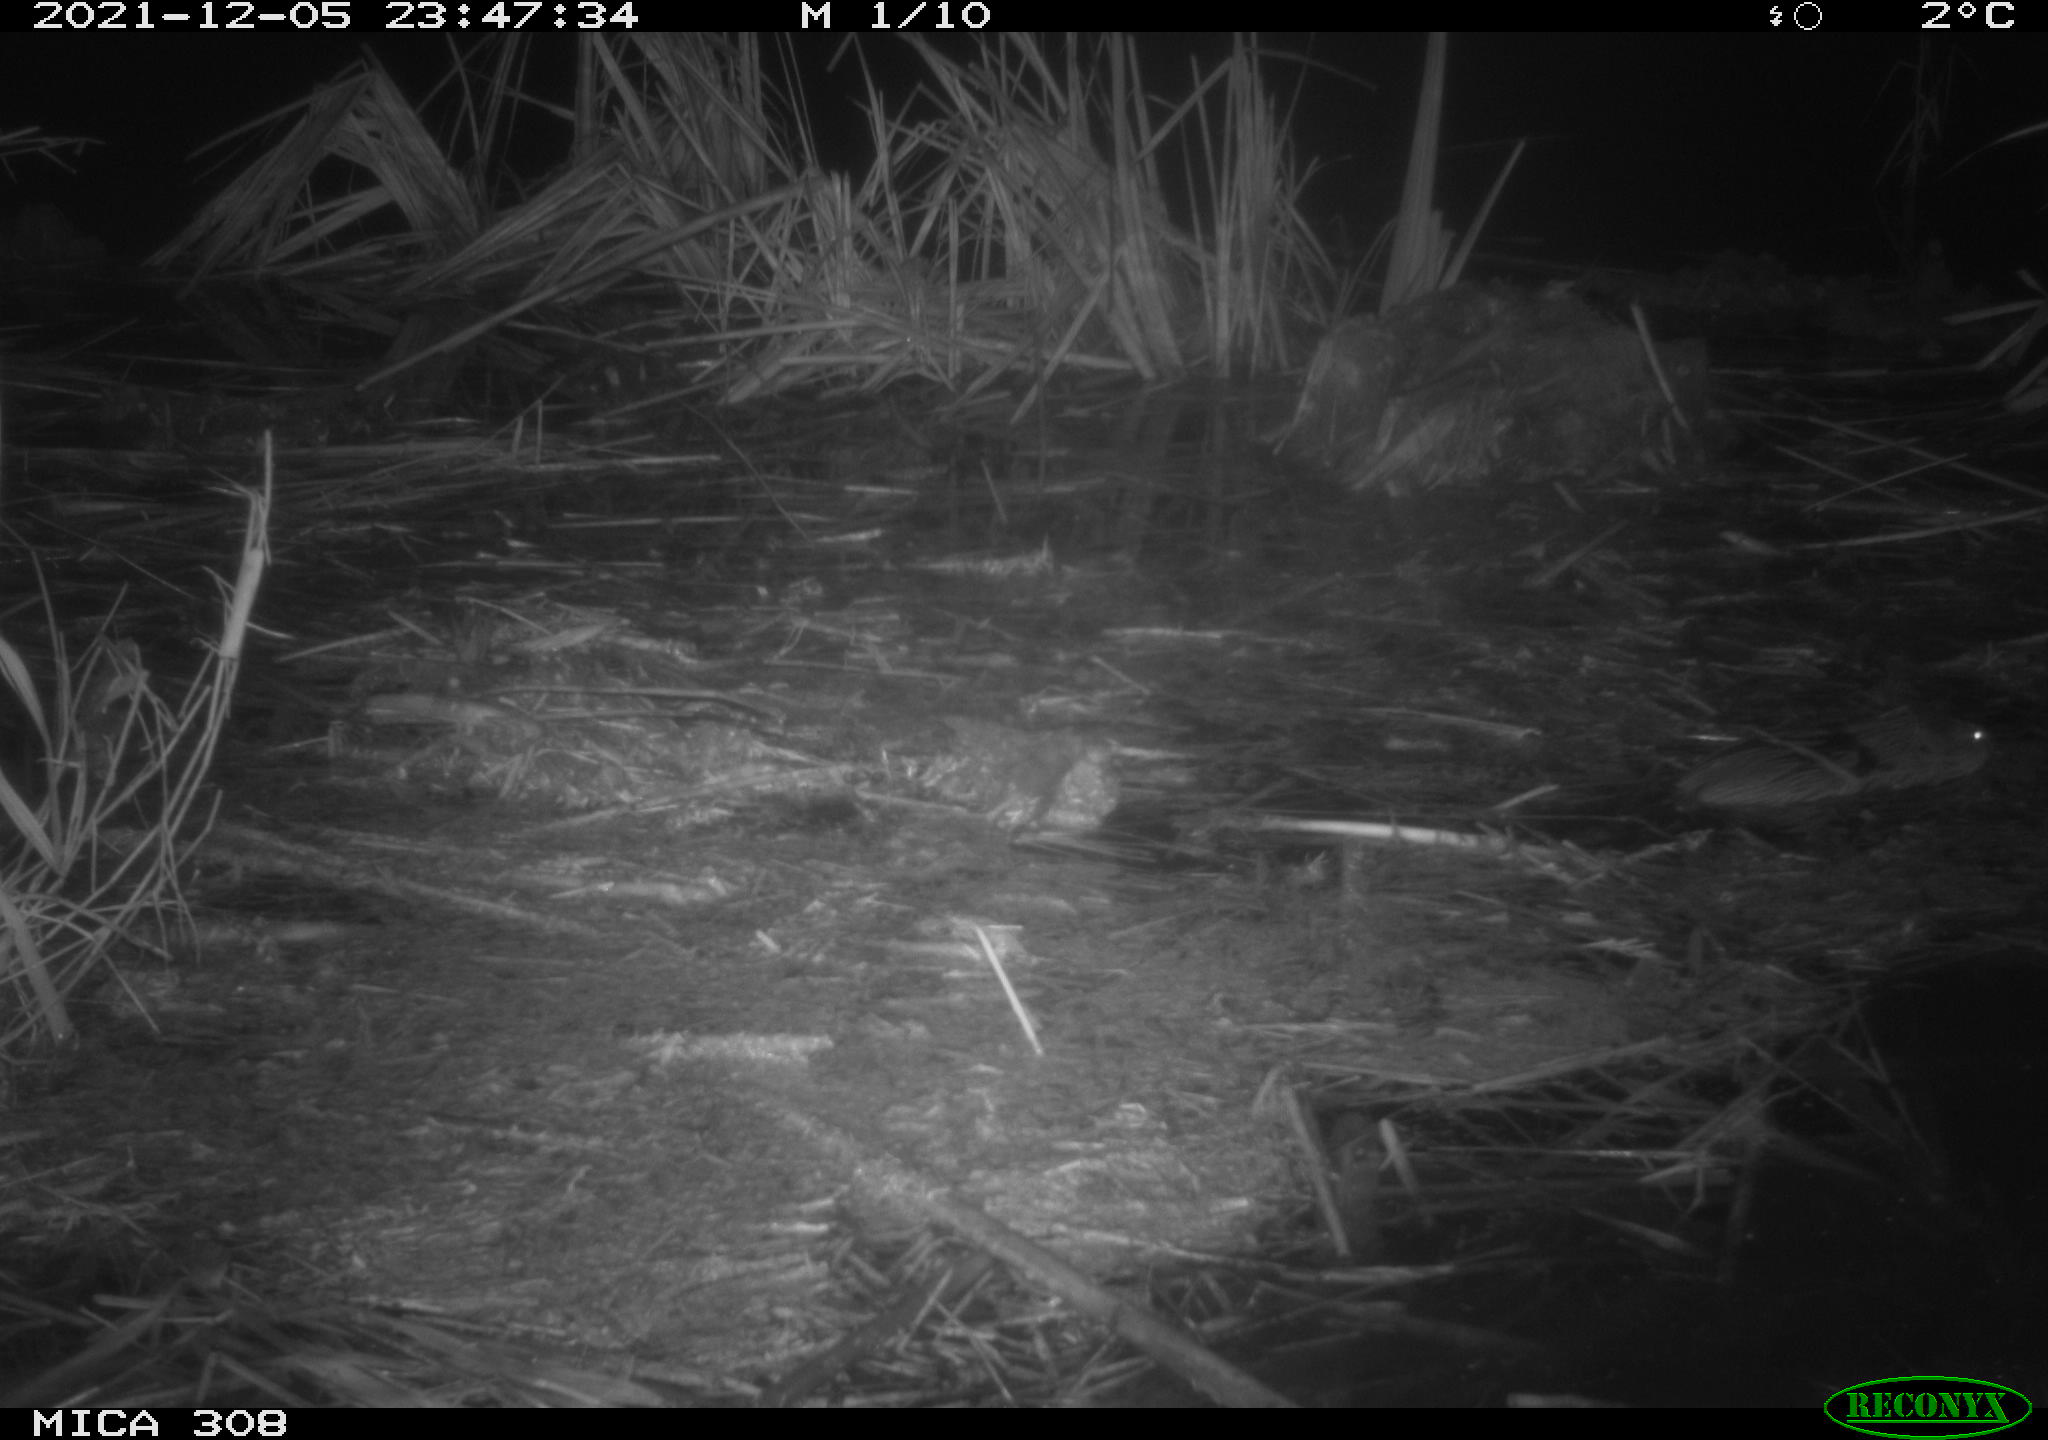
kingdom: Animalia
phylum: Chordata
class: Mammalia
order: Rodentia
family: Muridae
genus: Rattus
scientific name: Rattus norvegicus
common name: Brown rat
